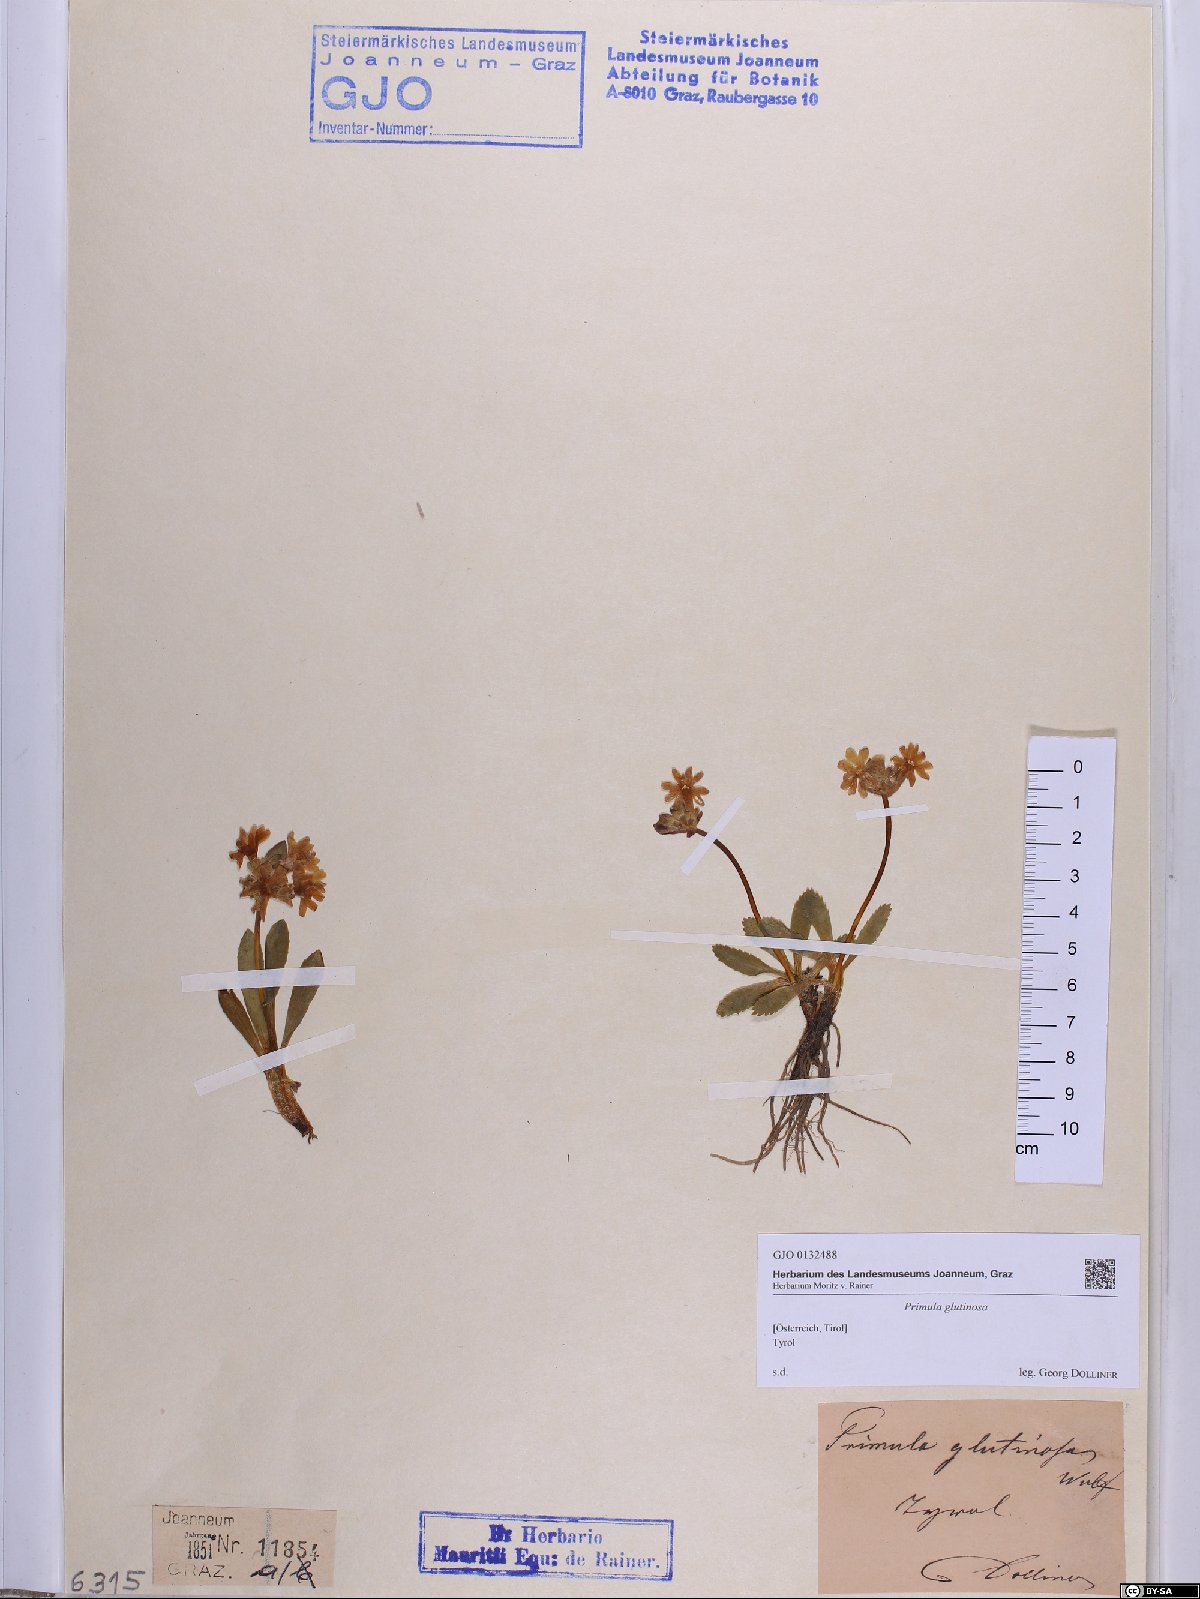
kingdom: Plantae
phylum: Tracheophyta
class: Magnoliopsida
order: Ericales
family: Primulaceae
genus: Primula
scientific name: Primula glutinosa
